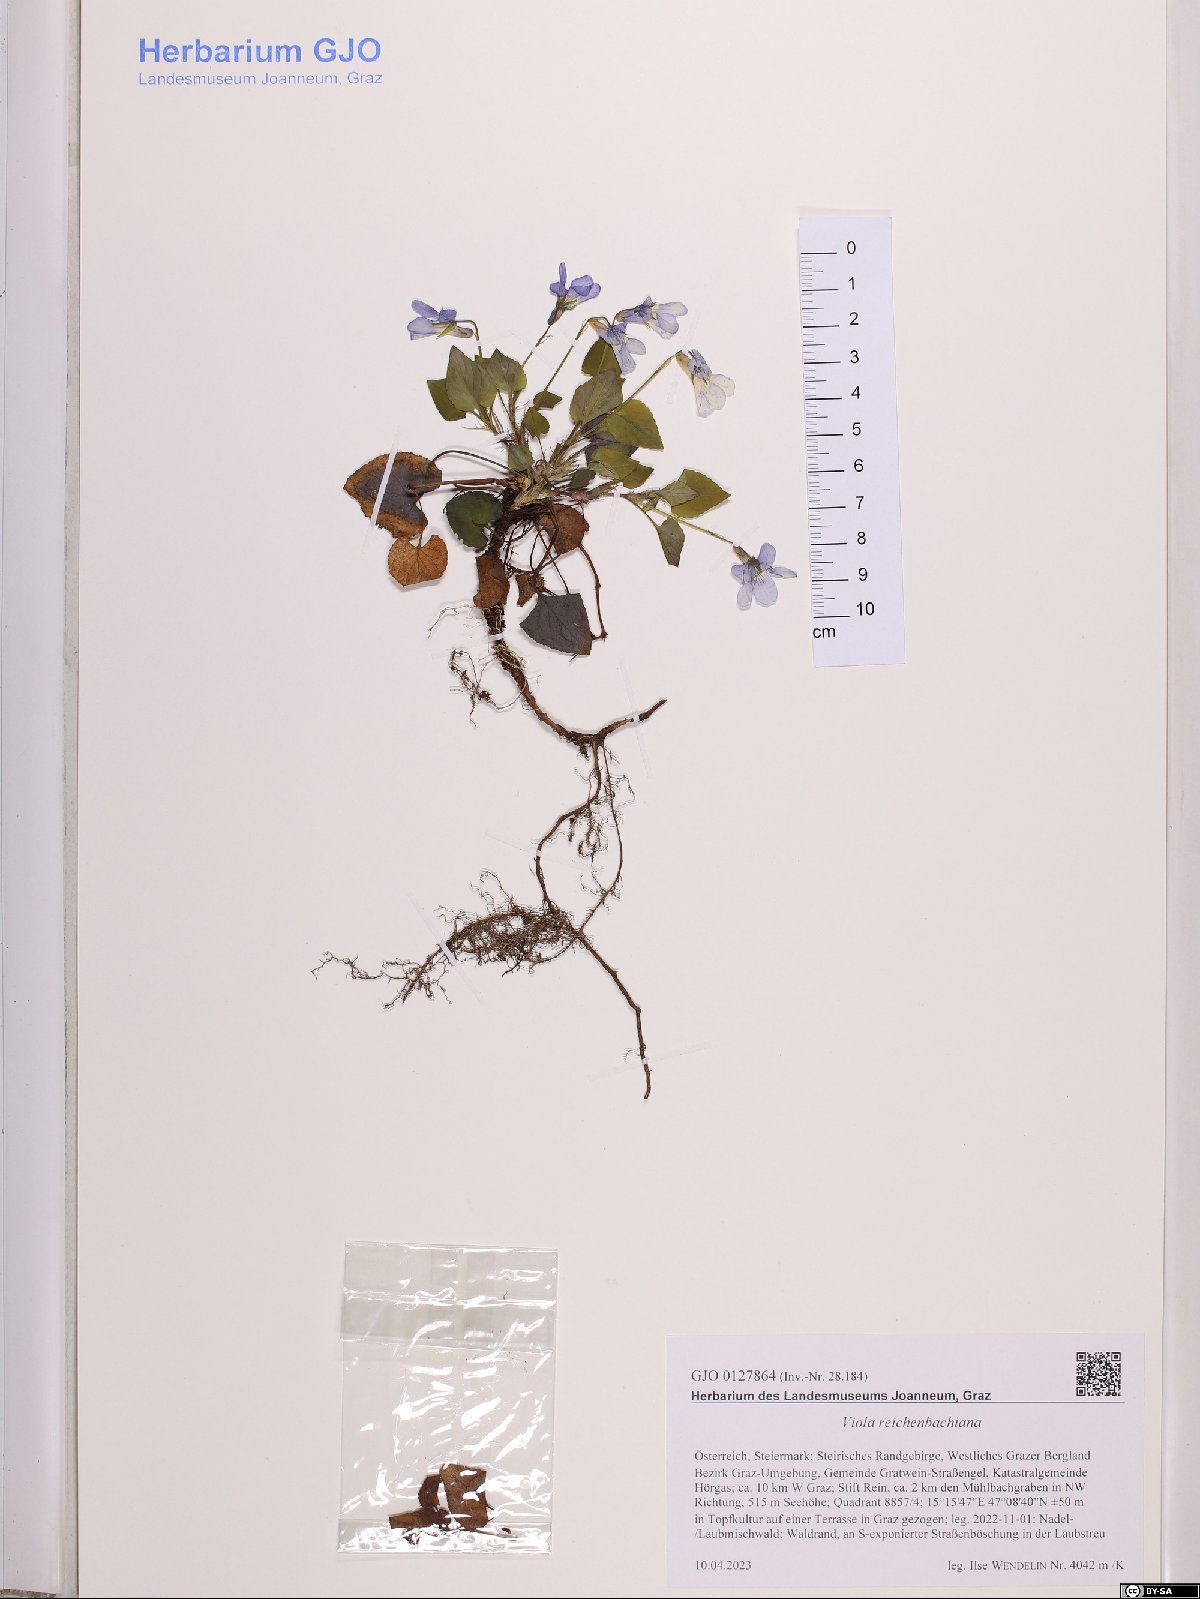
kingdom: Plantae
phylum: Tracheophyta
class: Magnoliopsida
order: Malpighiales
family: Violaceae
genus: Viola
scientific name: Viola reichenbachiana
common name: Early dog-violet
